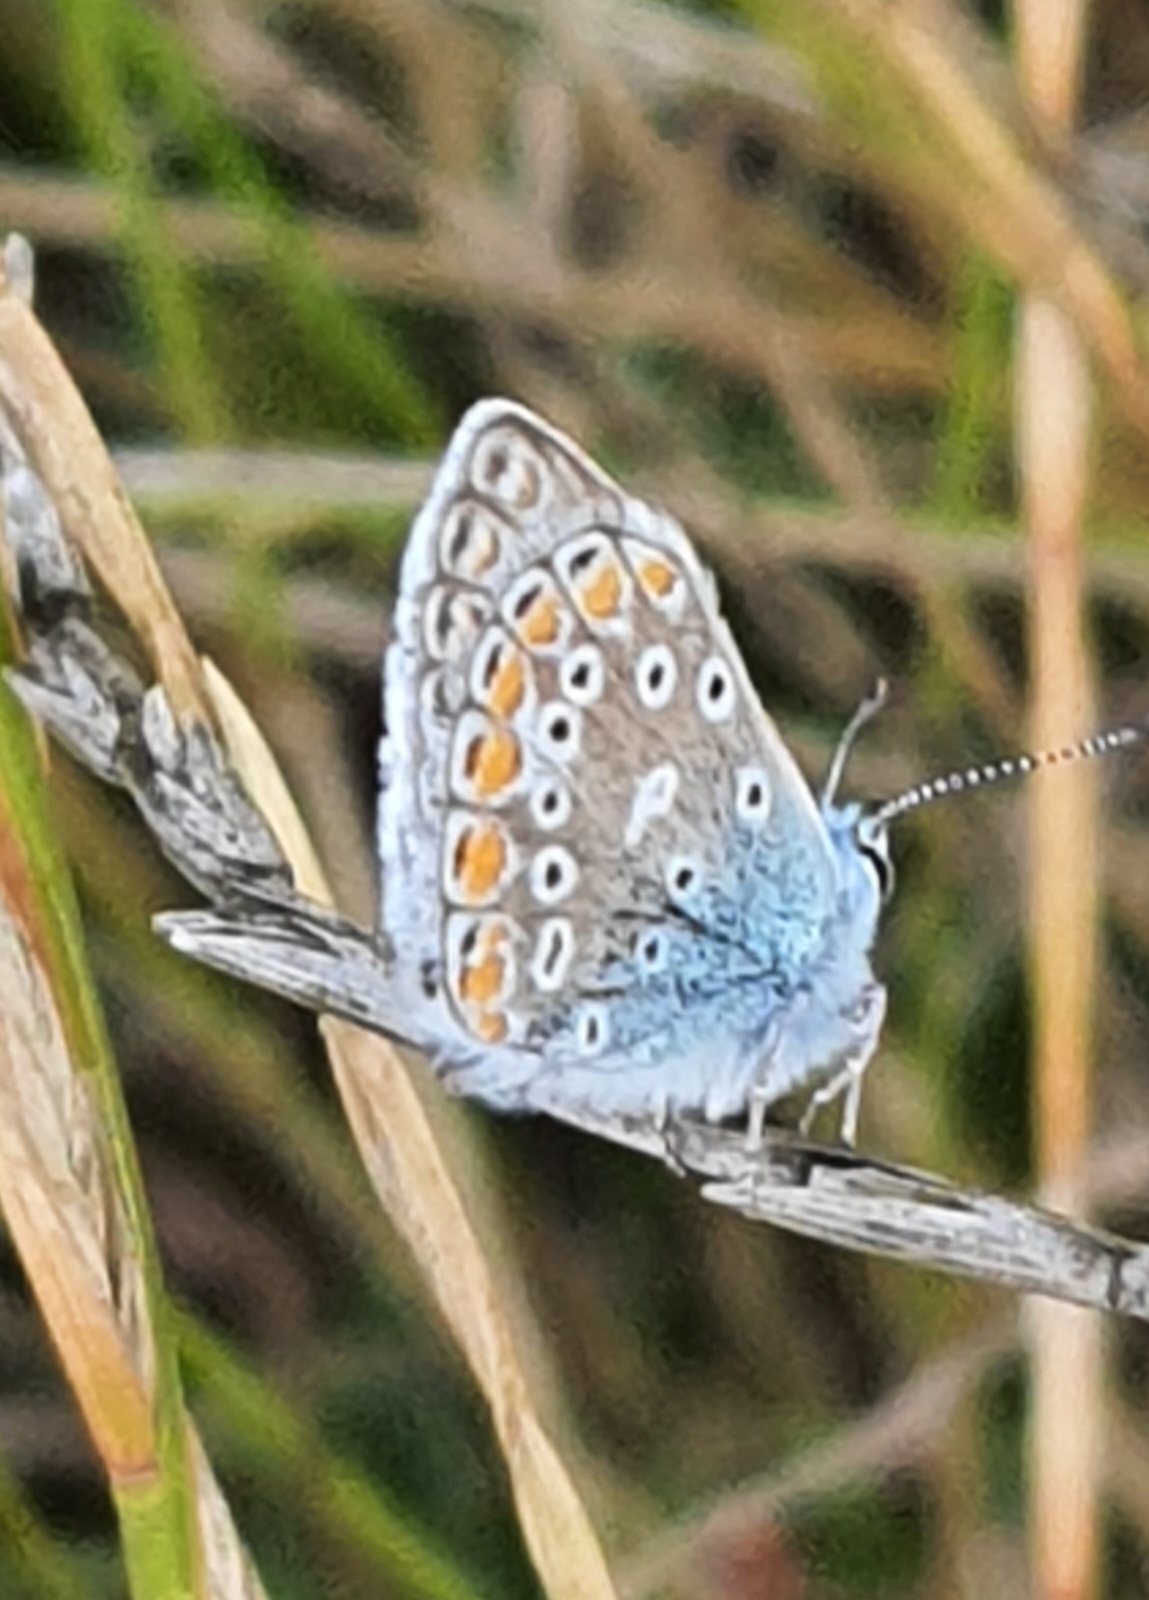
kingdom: Animalia
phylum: Arthropoda
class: Insecta
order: Lepidoptera
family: Lycaenidae
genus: Polyommatus
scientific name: Polyommatus icarus
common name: Almindelig blåfugl
